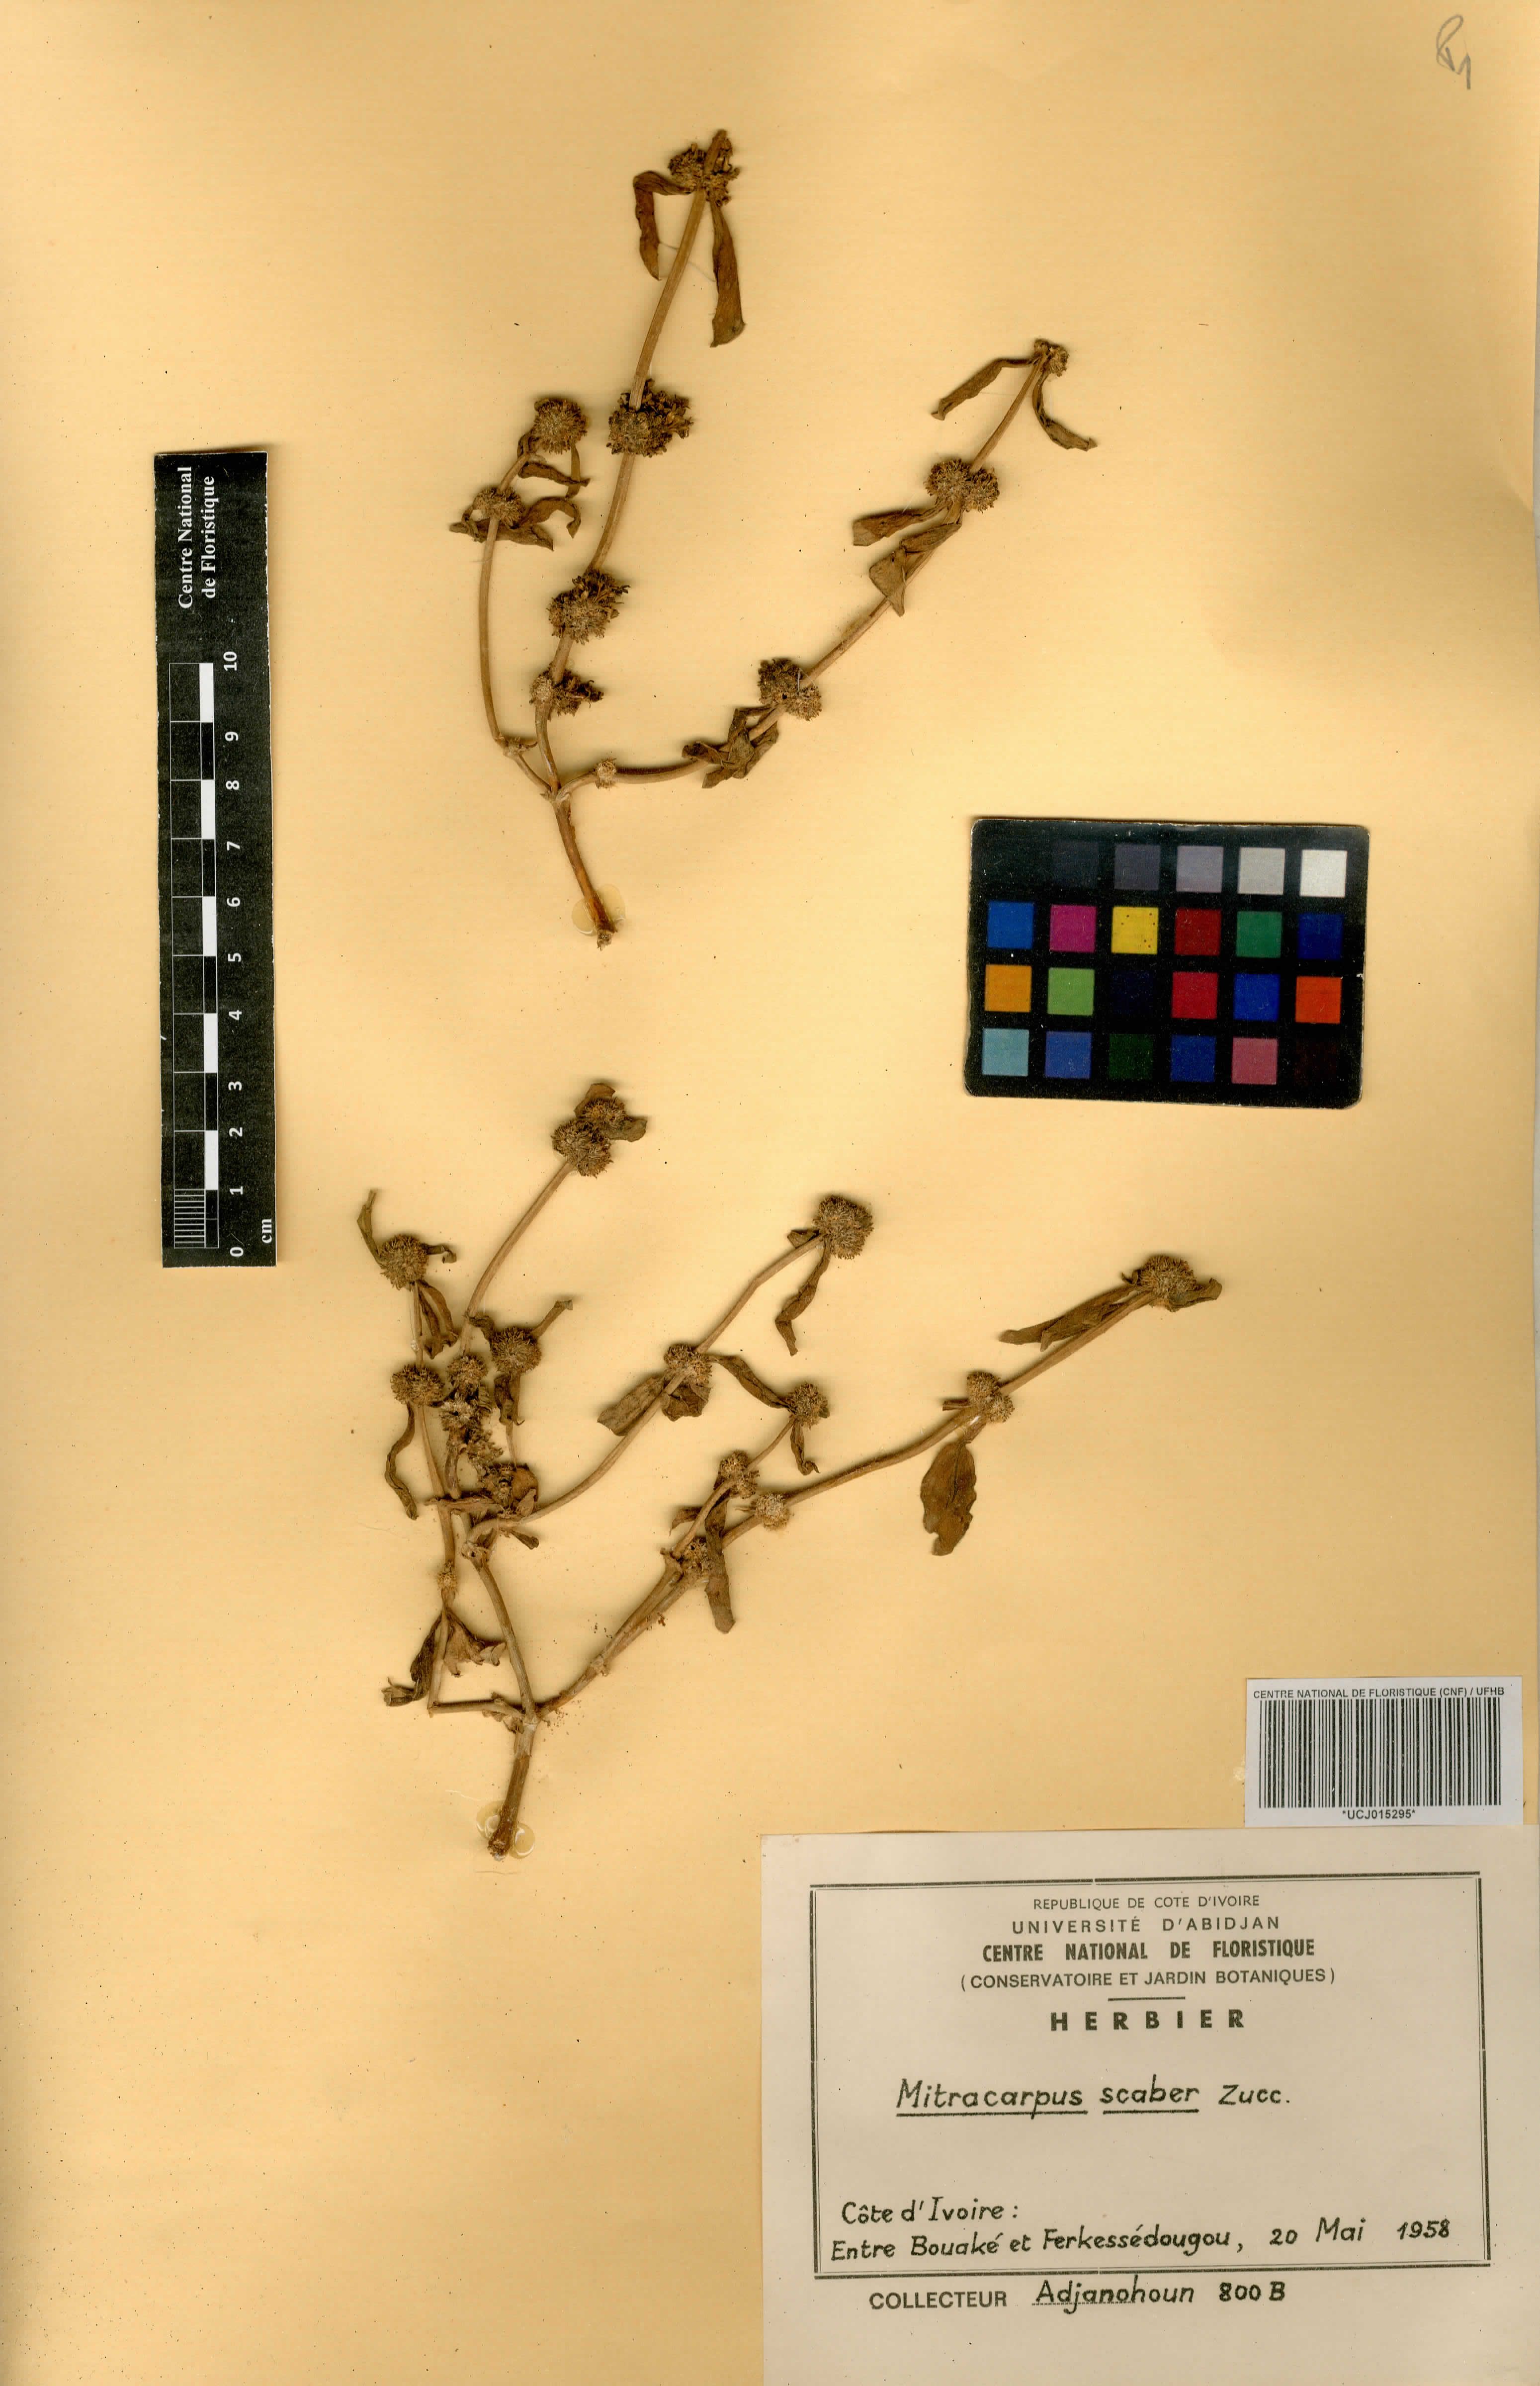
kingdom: Plantae
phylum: Tracheophyta
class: Magnoliopsida
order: Gentianales
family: Rubiaceae
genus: Mitracarpus
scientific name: Mitracarpus hirtus
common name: Tropical girdlepod
